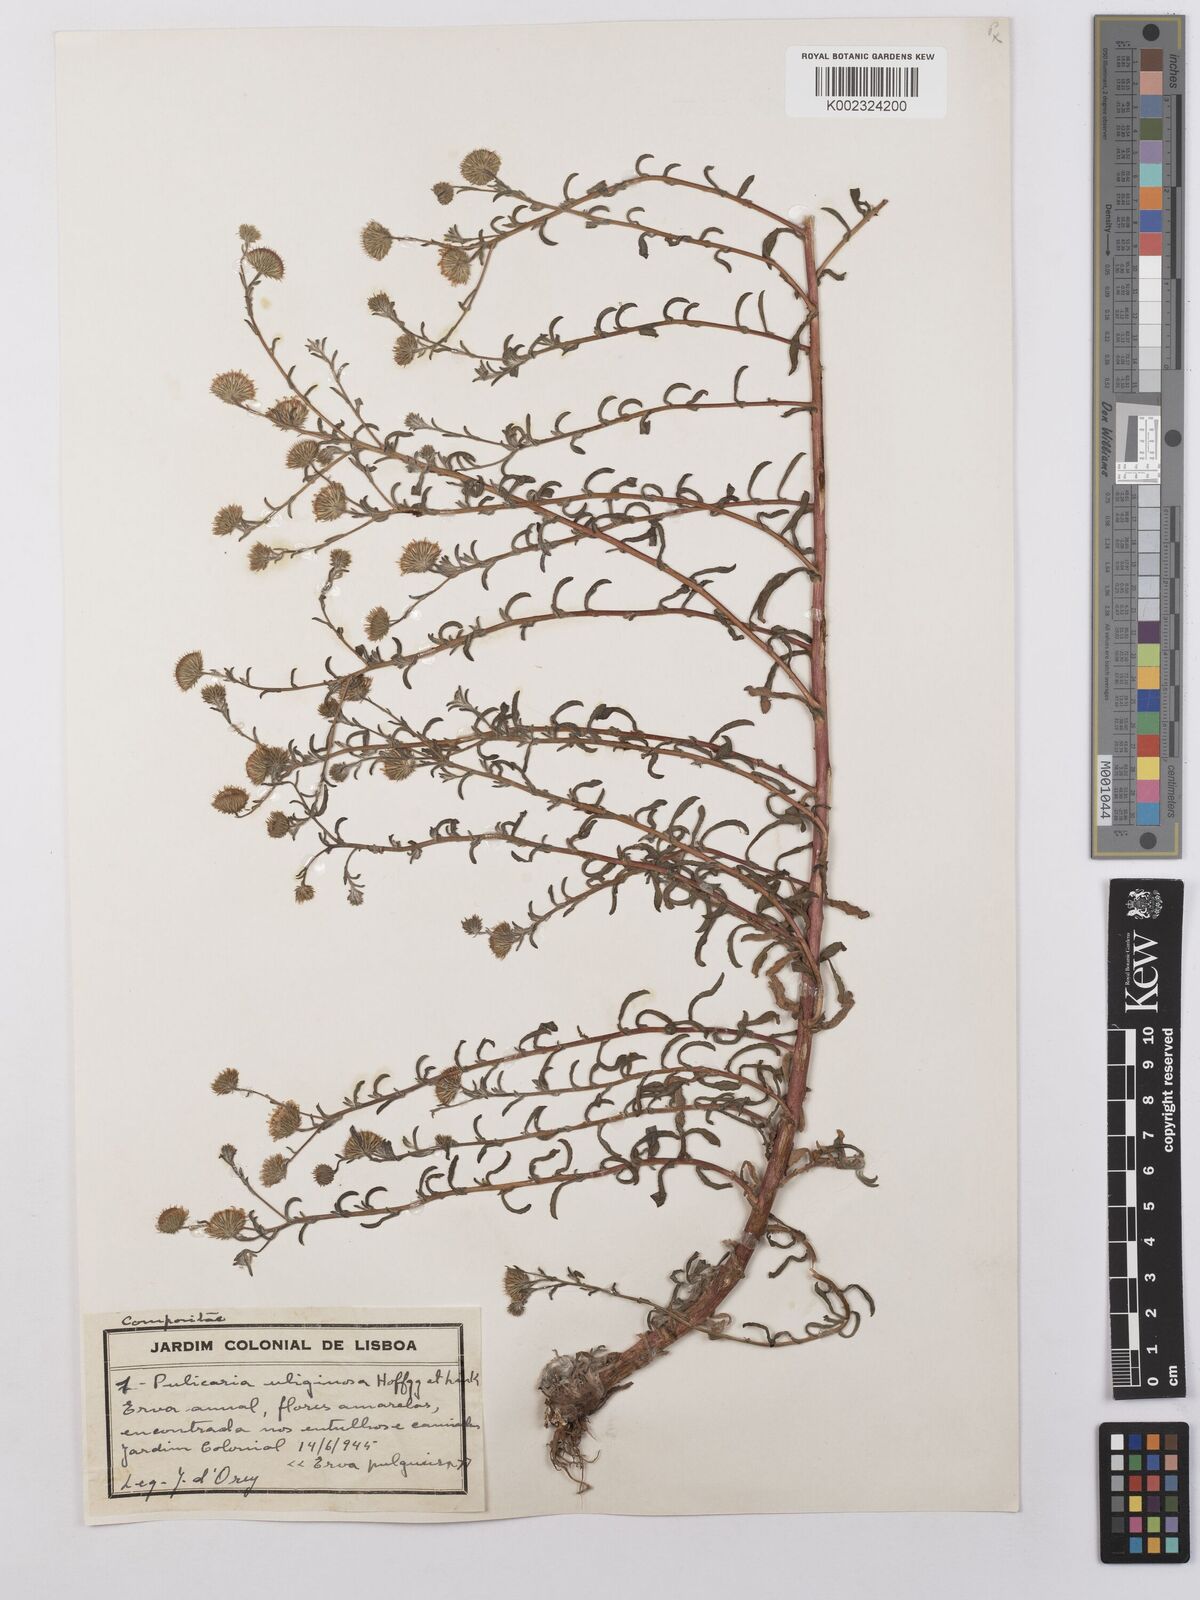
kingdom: Plantae
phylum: Tracheophyta
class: Magnoliopsida
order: Asterales
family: Asteraceae
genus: Pulicaria
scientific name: Pulicaria arabica
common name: Ladies' false fleabane
